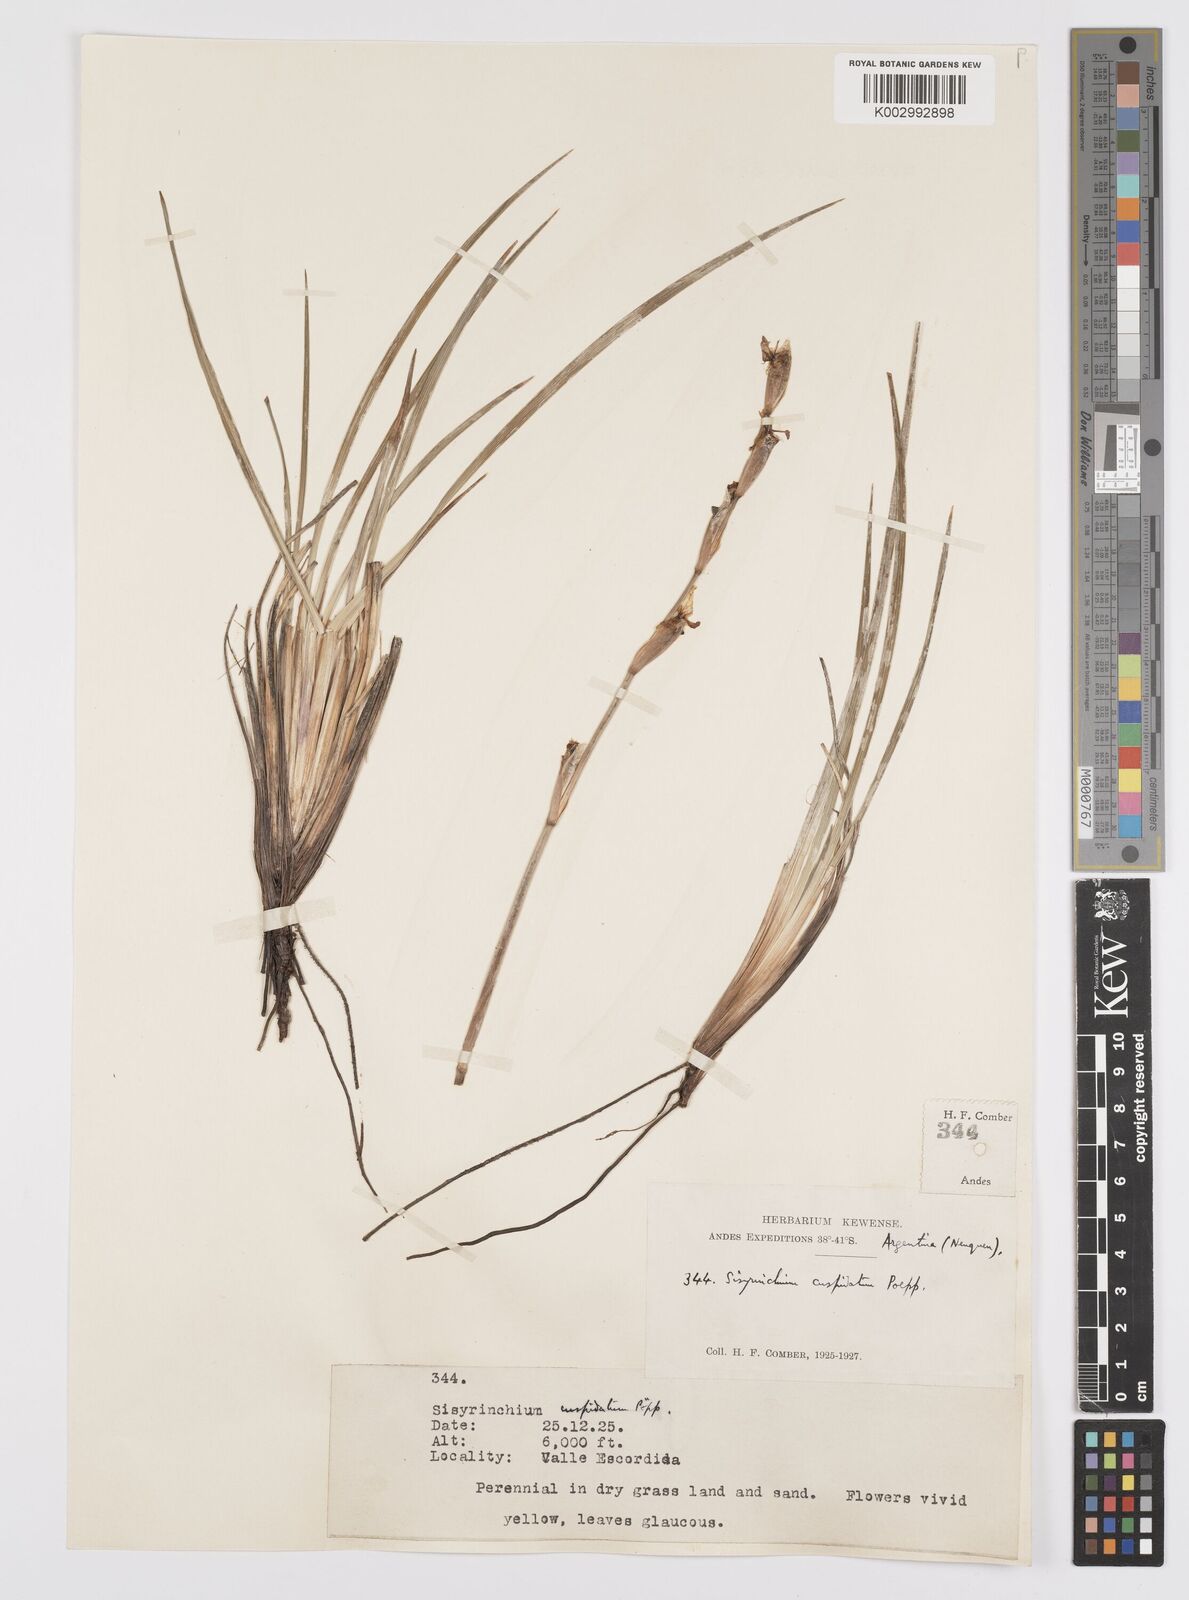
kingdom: Plantae
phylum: Tracheophyta
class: Liliopsida
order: Asparagales
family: Iridaceae
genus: Sisyrinchium
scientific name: Sisyrinchium cuspidatum
